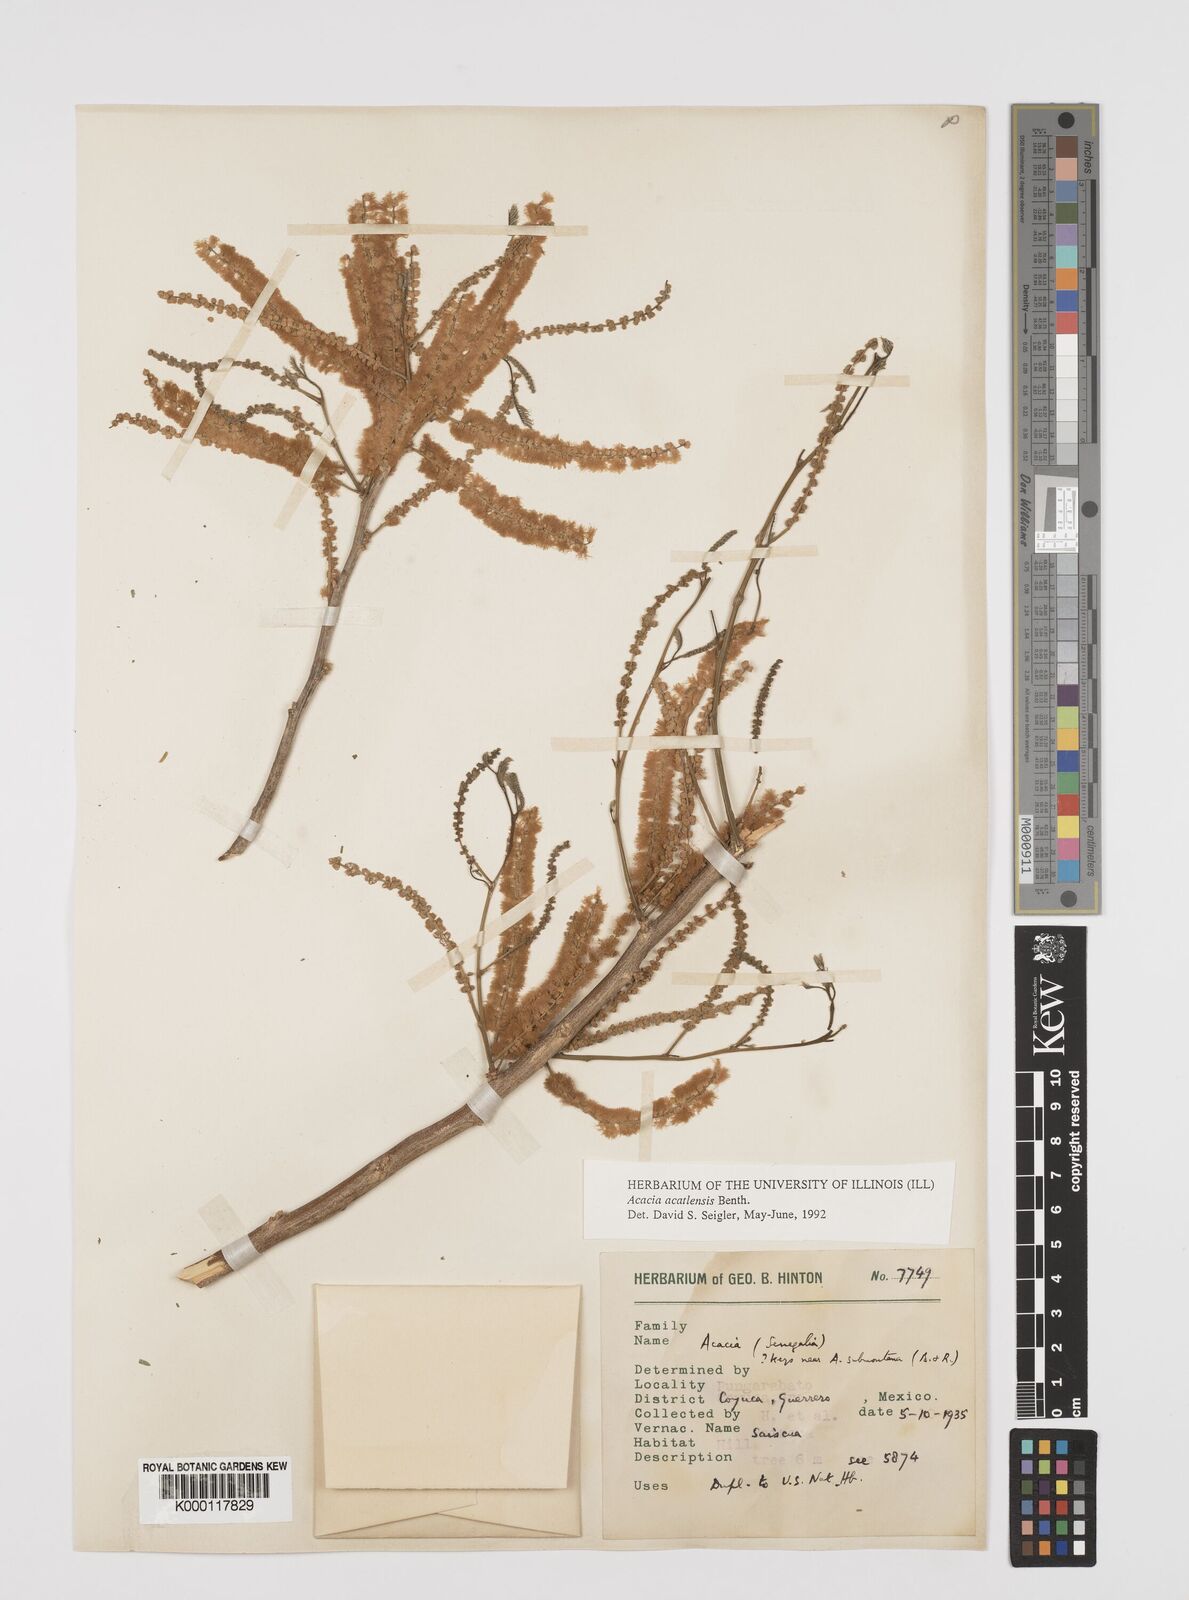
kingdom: Plantae
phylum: Tracheophyta
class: Magnoliopsida
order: Fabales
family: Fabaceae
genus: Mariosousa
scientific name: Mariosousa acatlensis
